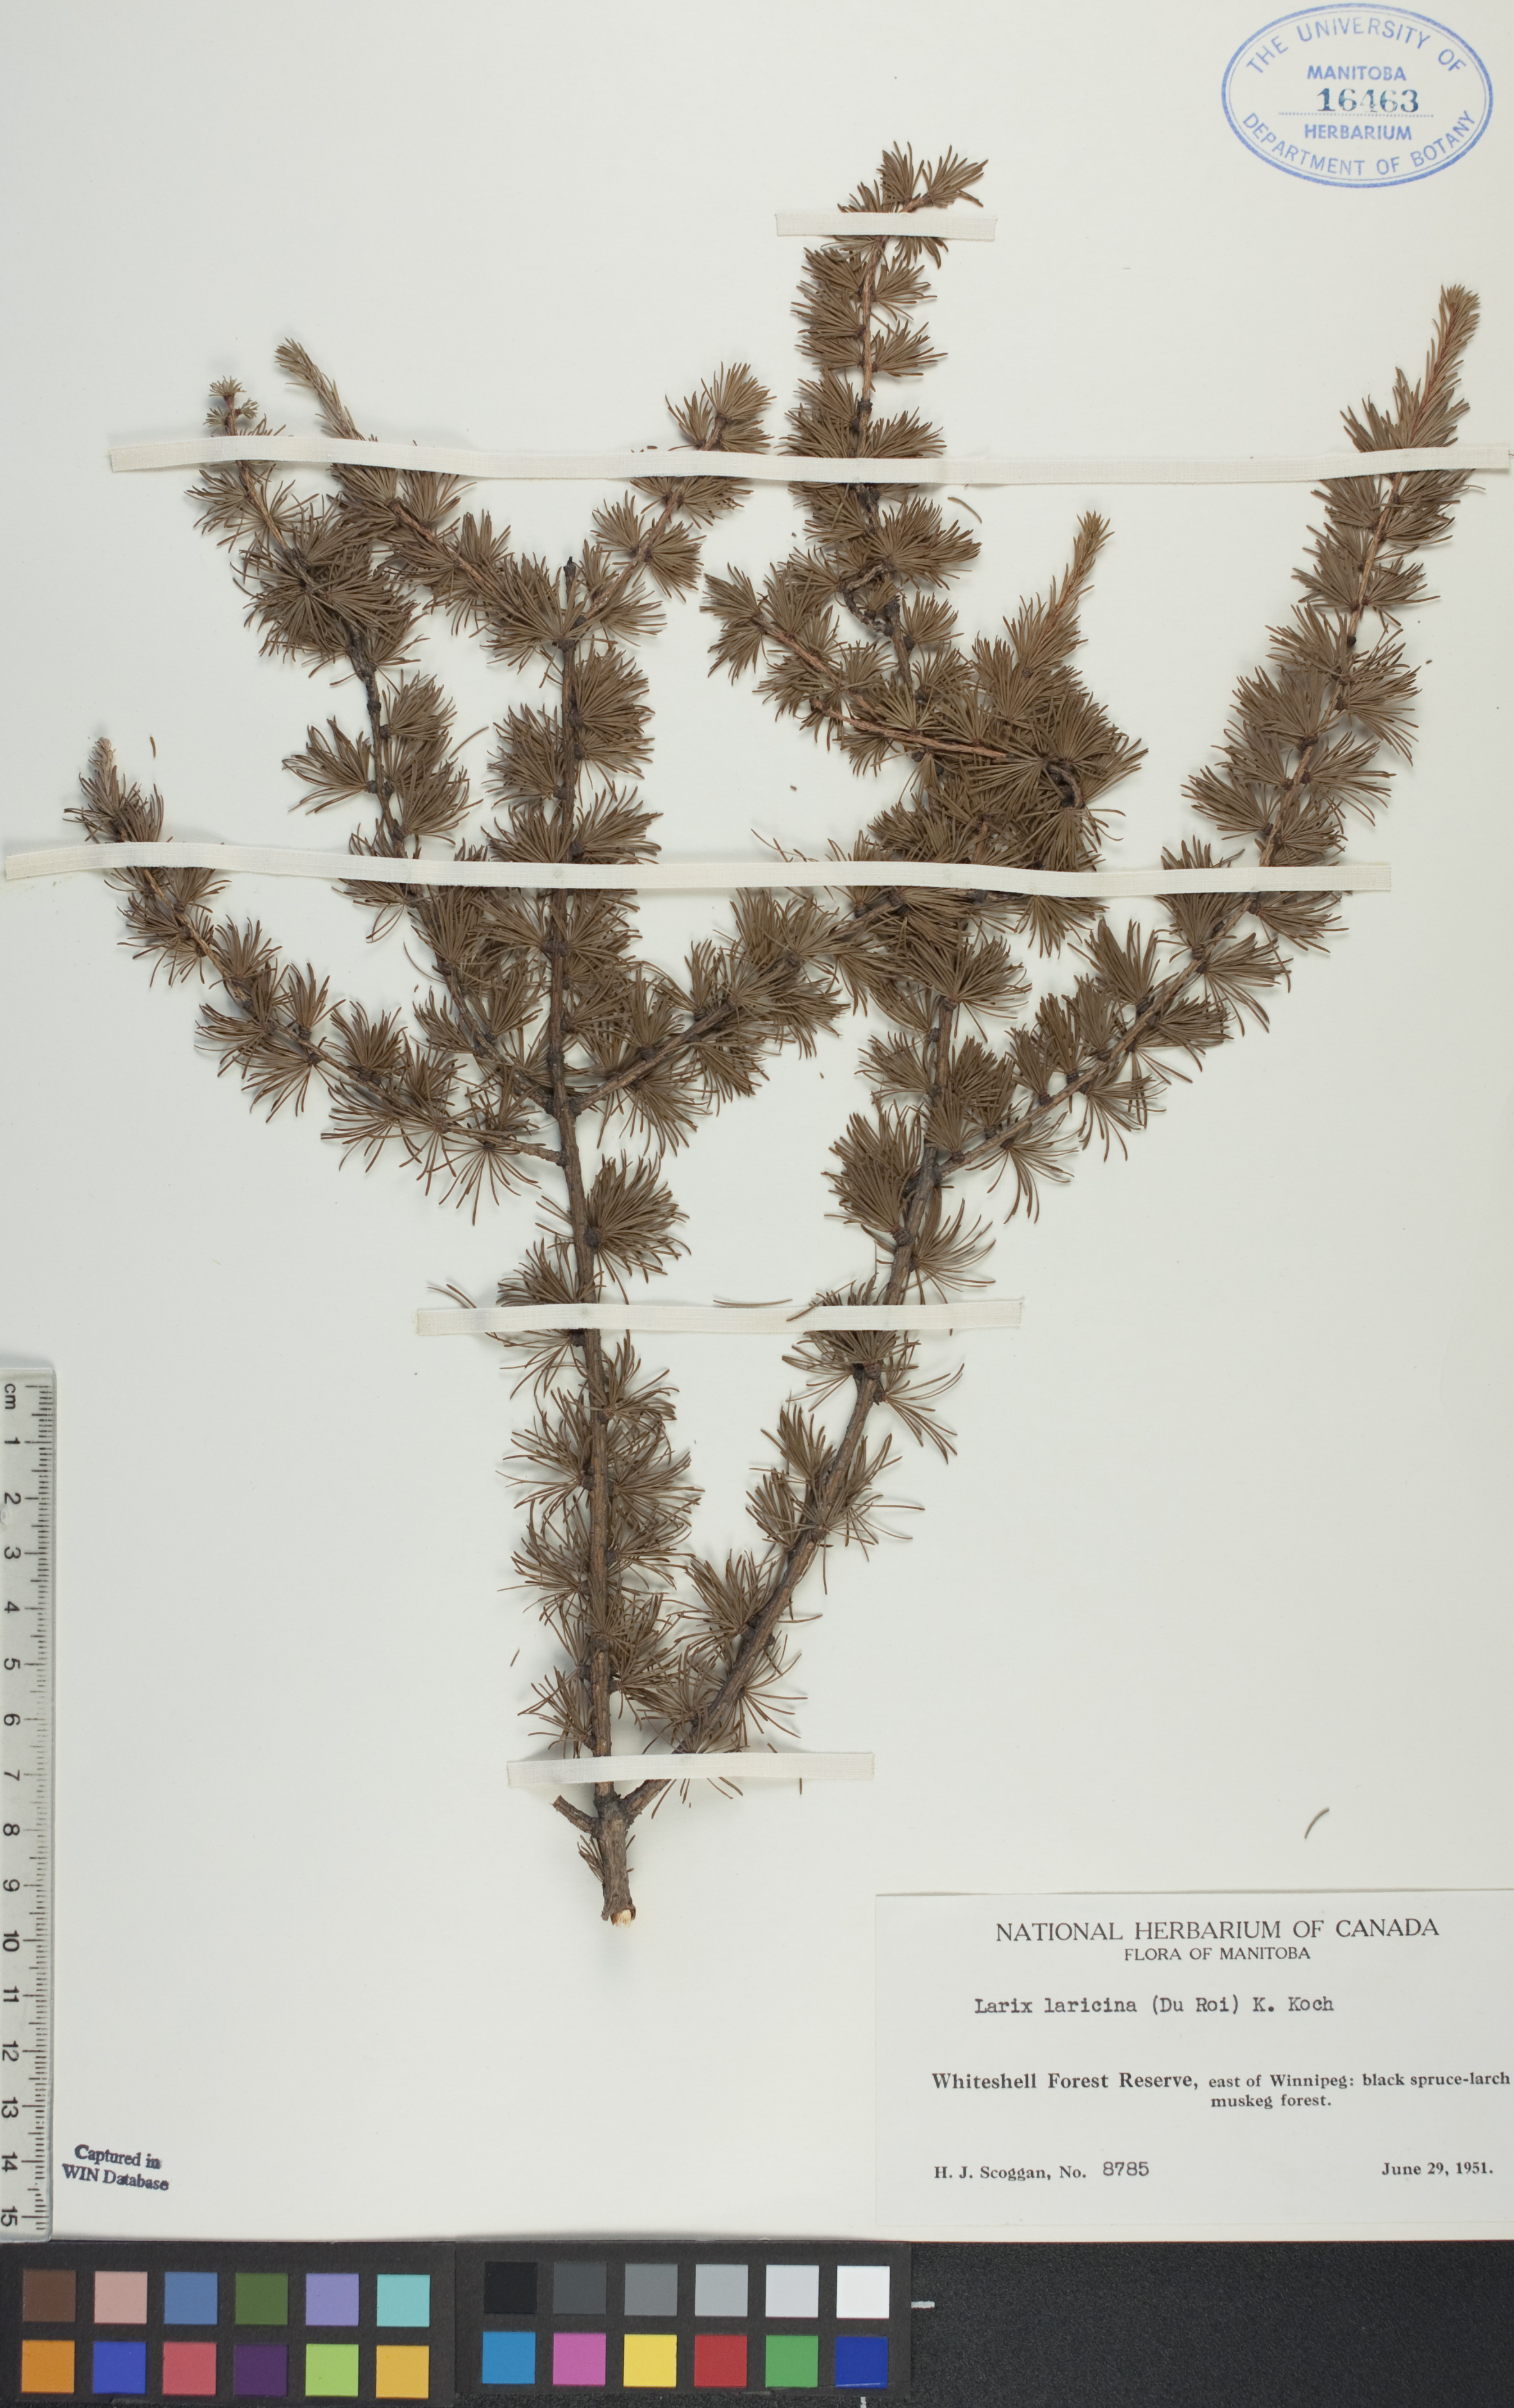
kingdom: Plantae
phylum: Tracheophyta
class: Pinopsida
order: Pinales
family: Pinaceae
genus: Larix
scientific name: Larix laricina
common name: American larch
